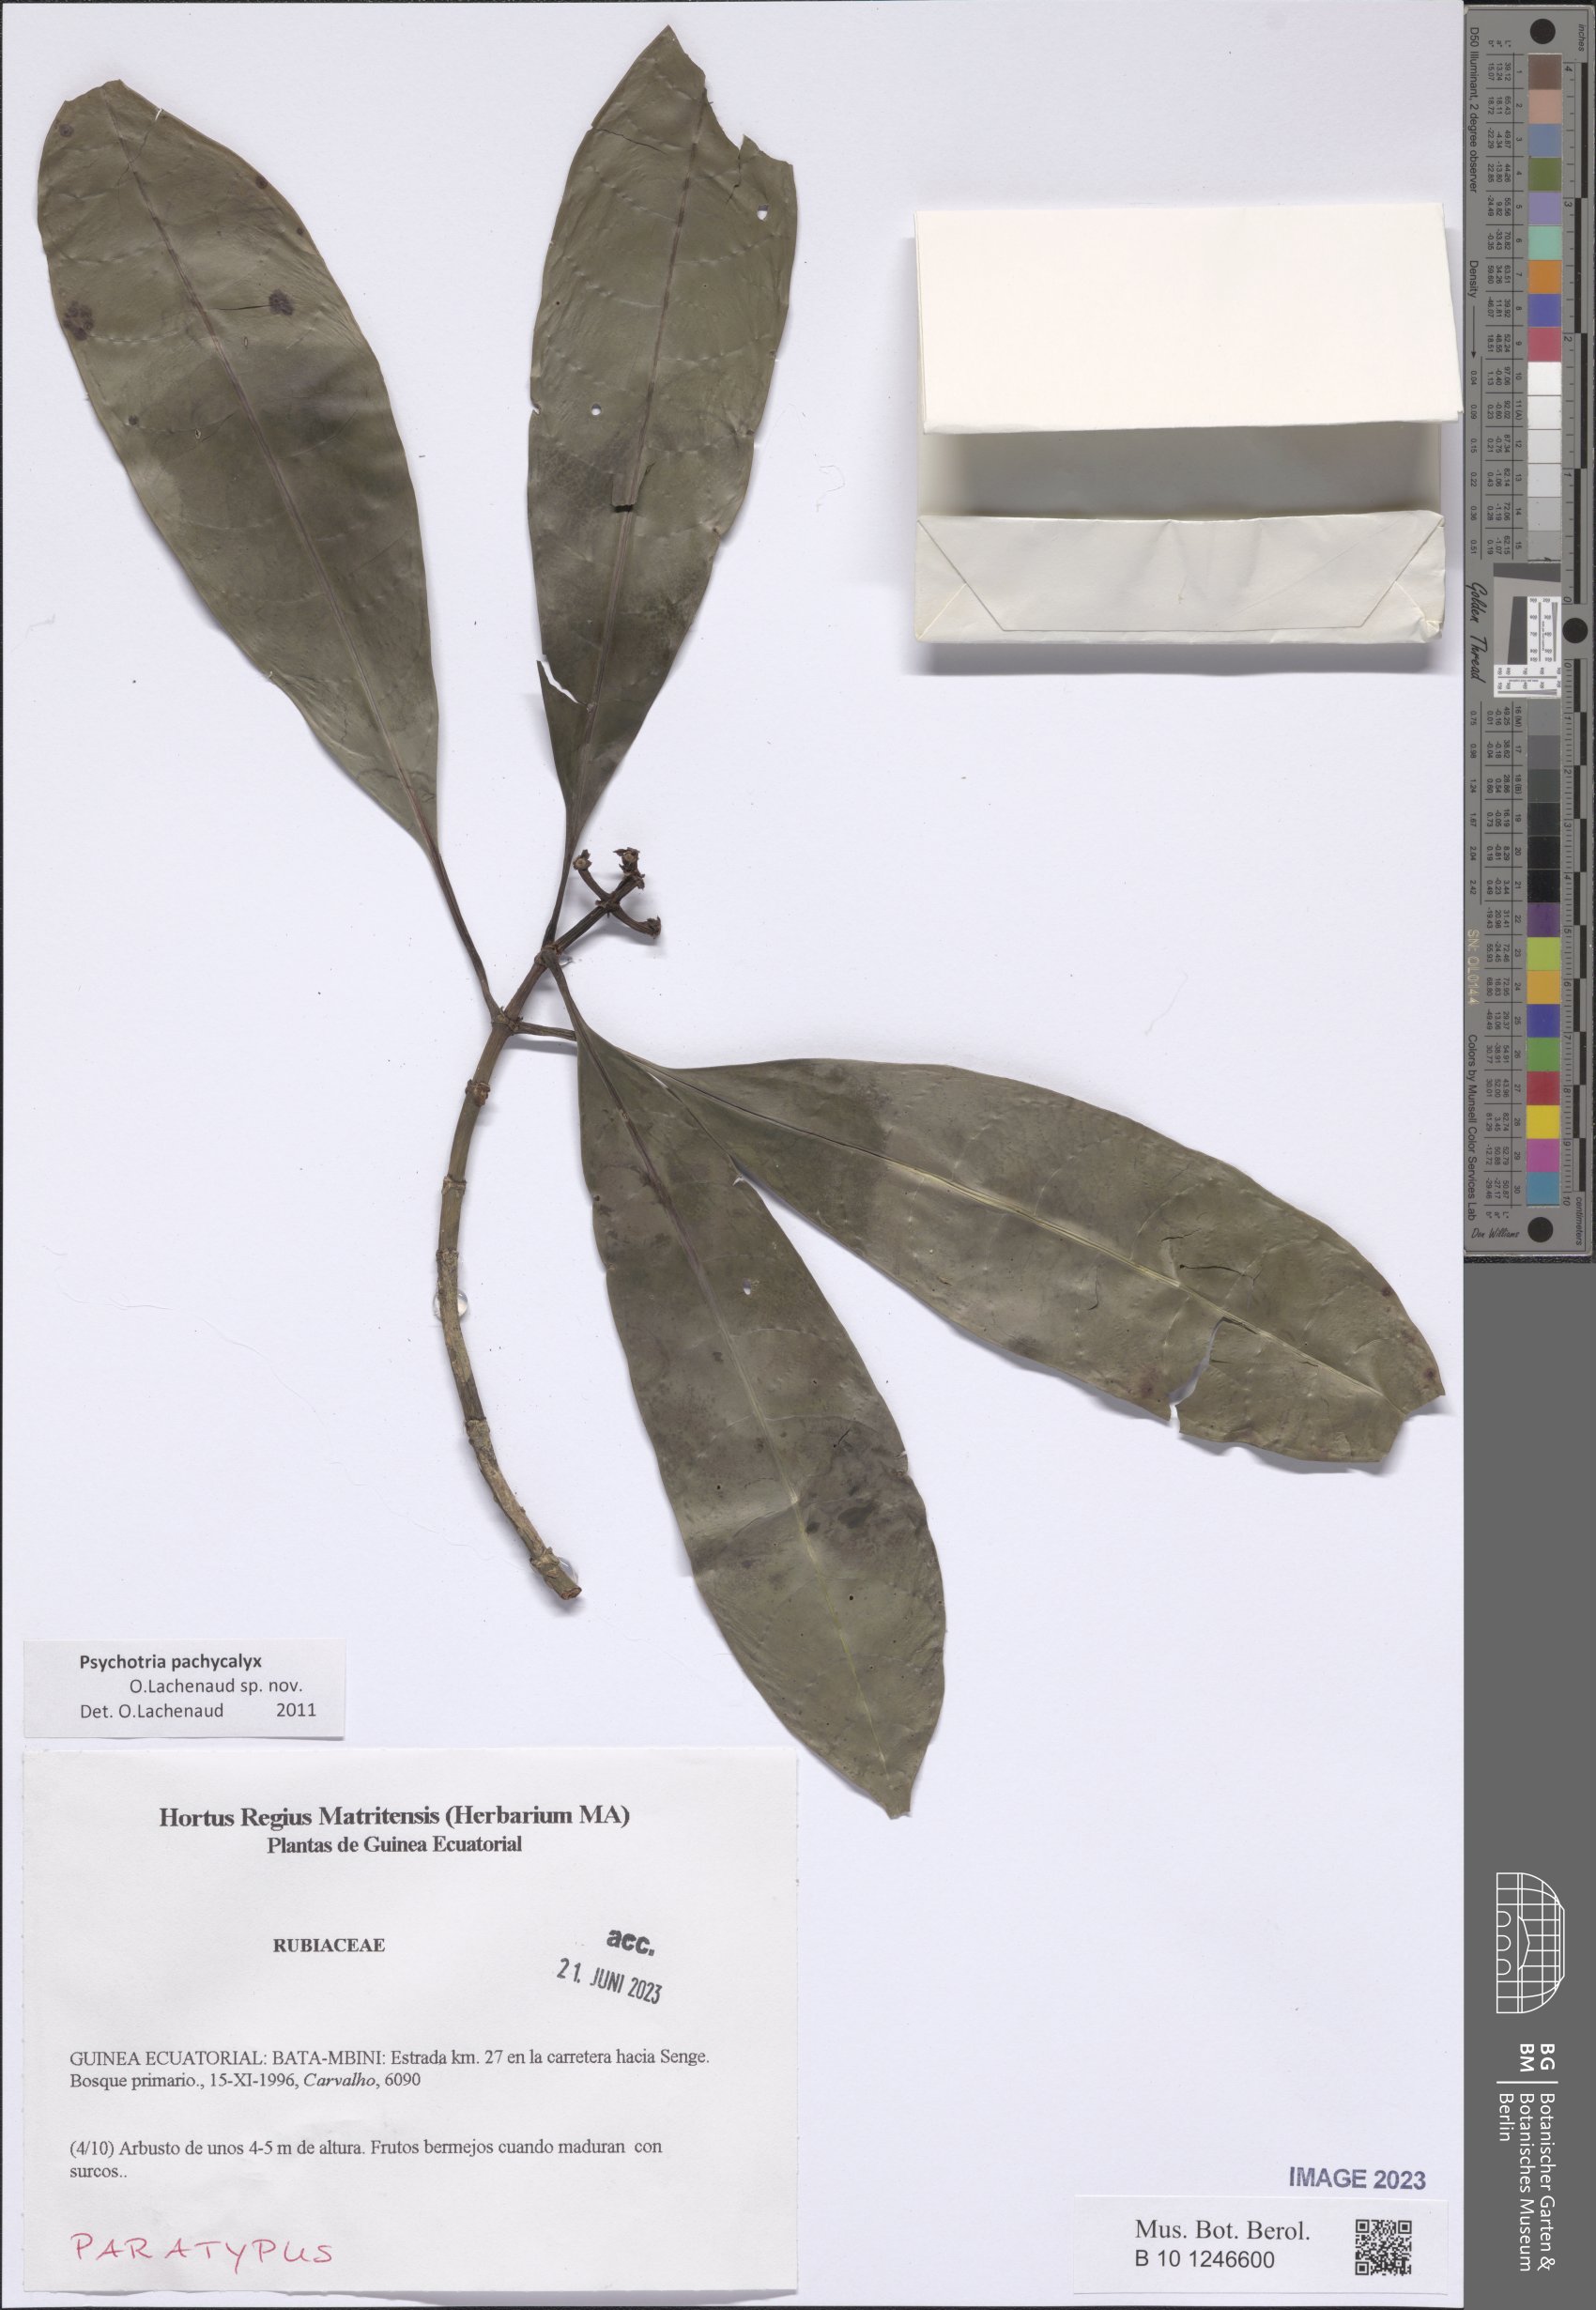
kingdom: Plantae
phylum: Tracheophyta
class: Magnoliopsida
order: Gentianales
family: Rubiaceae
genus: Psychotria
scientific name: Psychotria pachycalyx
